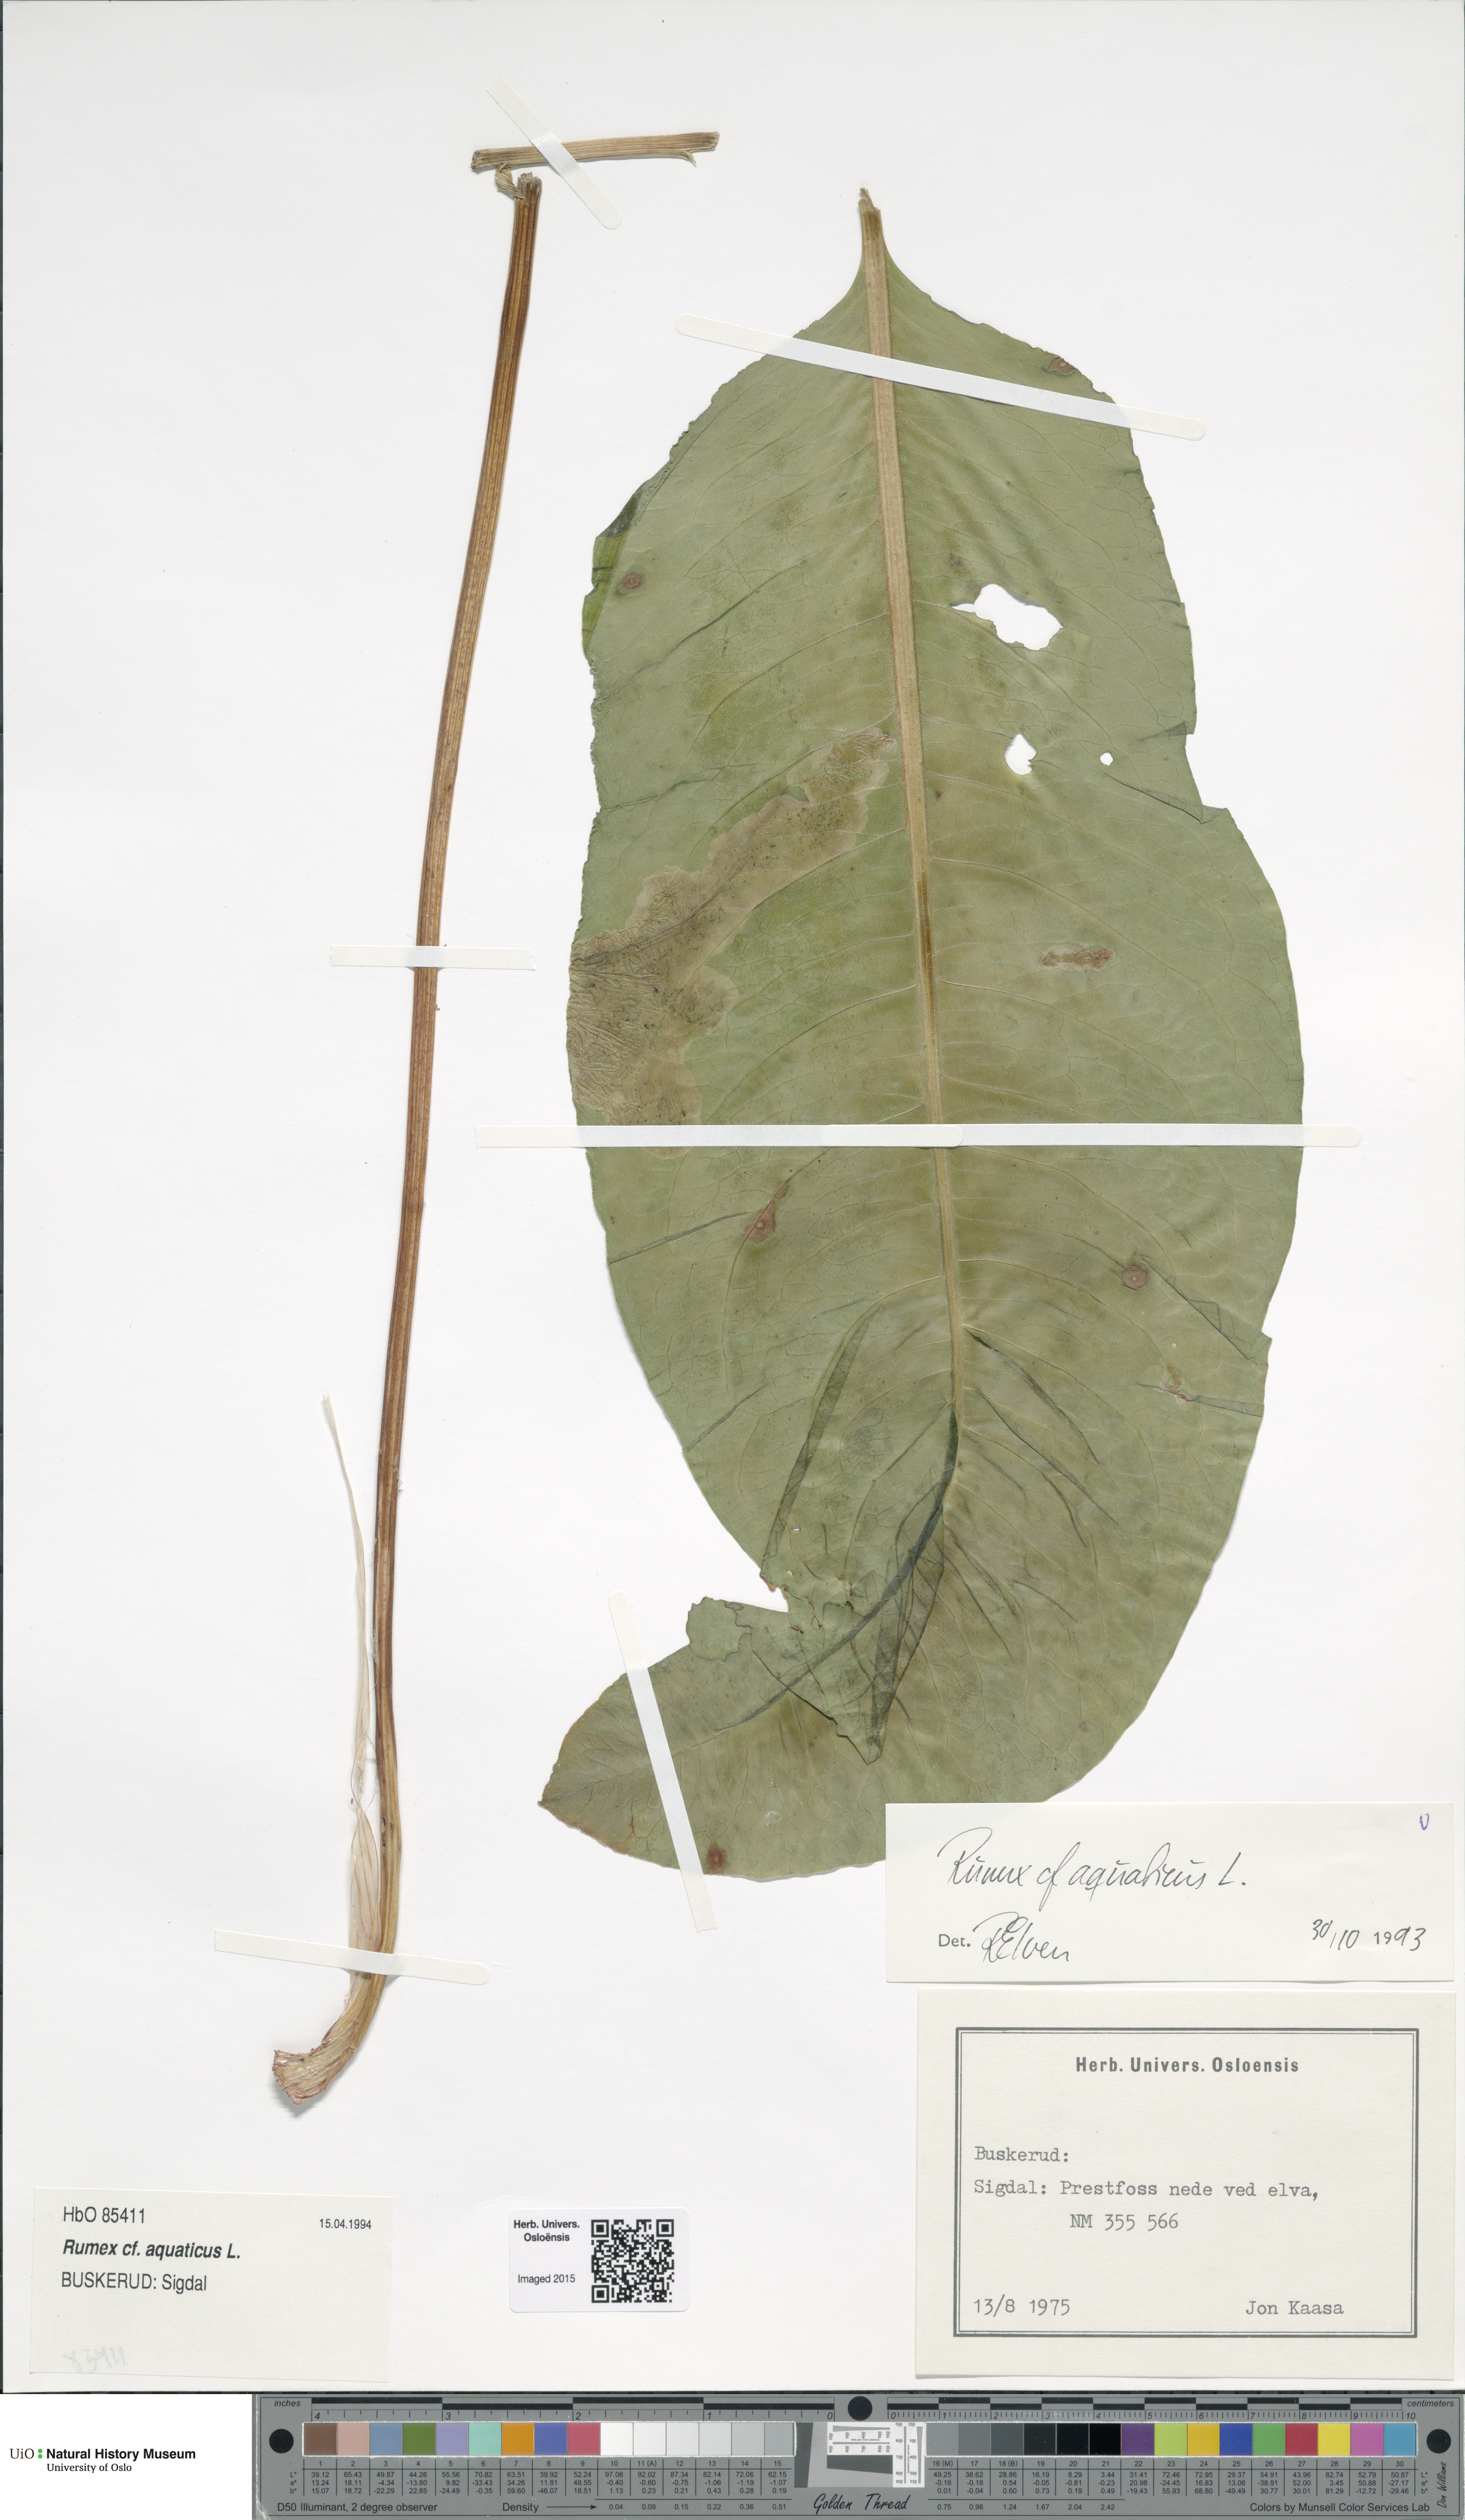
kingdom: Plantae
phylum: Tracheophyta
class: Magnoliopsida
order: Caryophyllales
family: Polygonaceae
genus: Rumex
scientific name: Rumex aquaticus
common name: Scottish dock
